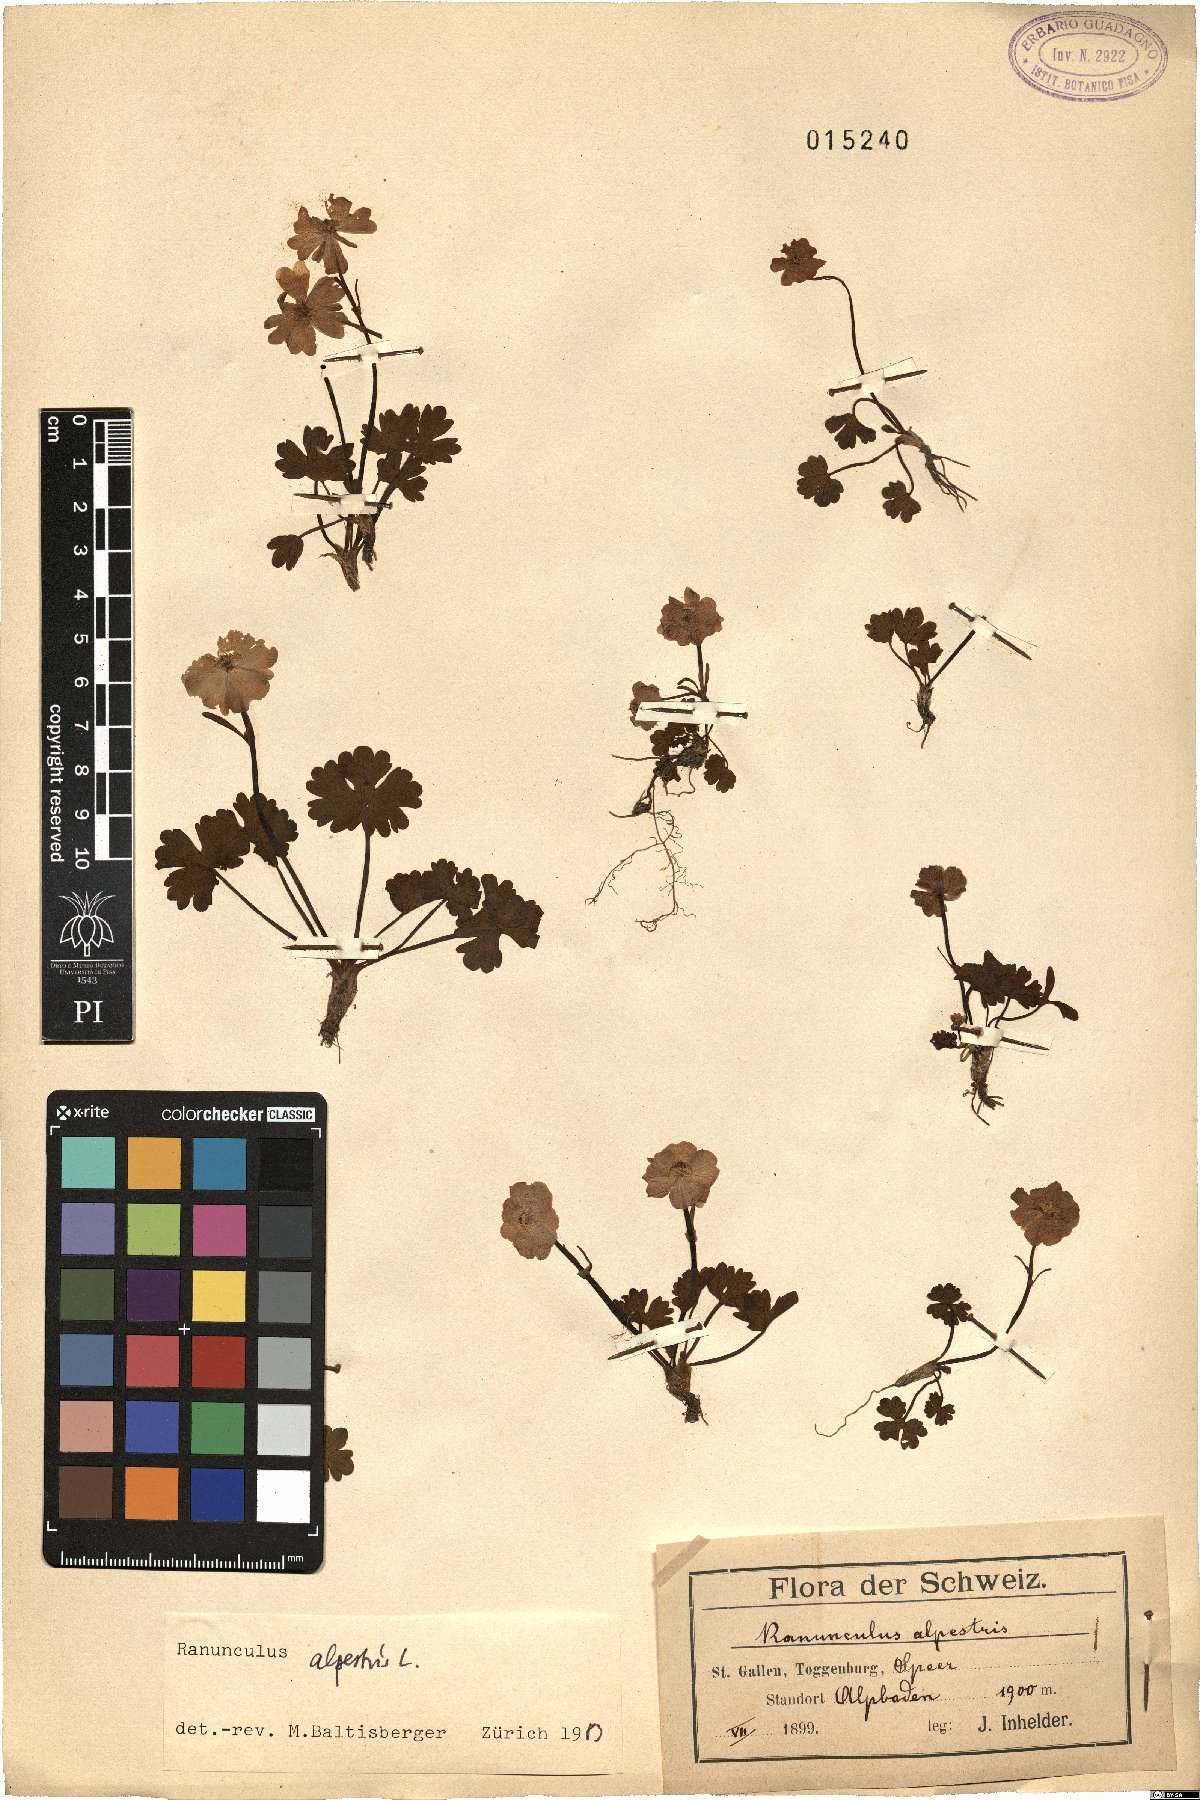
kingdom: Plantae
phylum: Tracheophyta
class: Magnoliopsida
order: Ranunculales
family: Ranunculaceae
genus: Ranunculus
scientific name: Ranunculus alpestris
